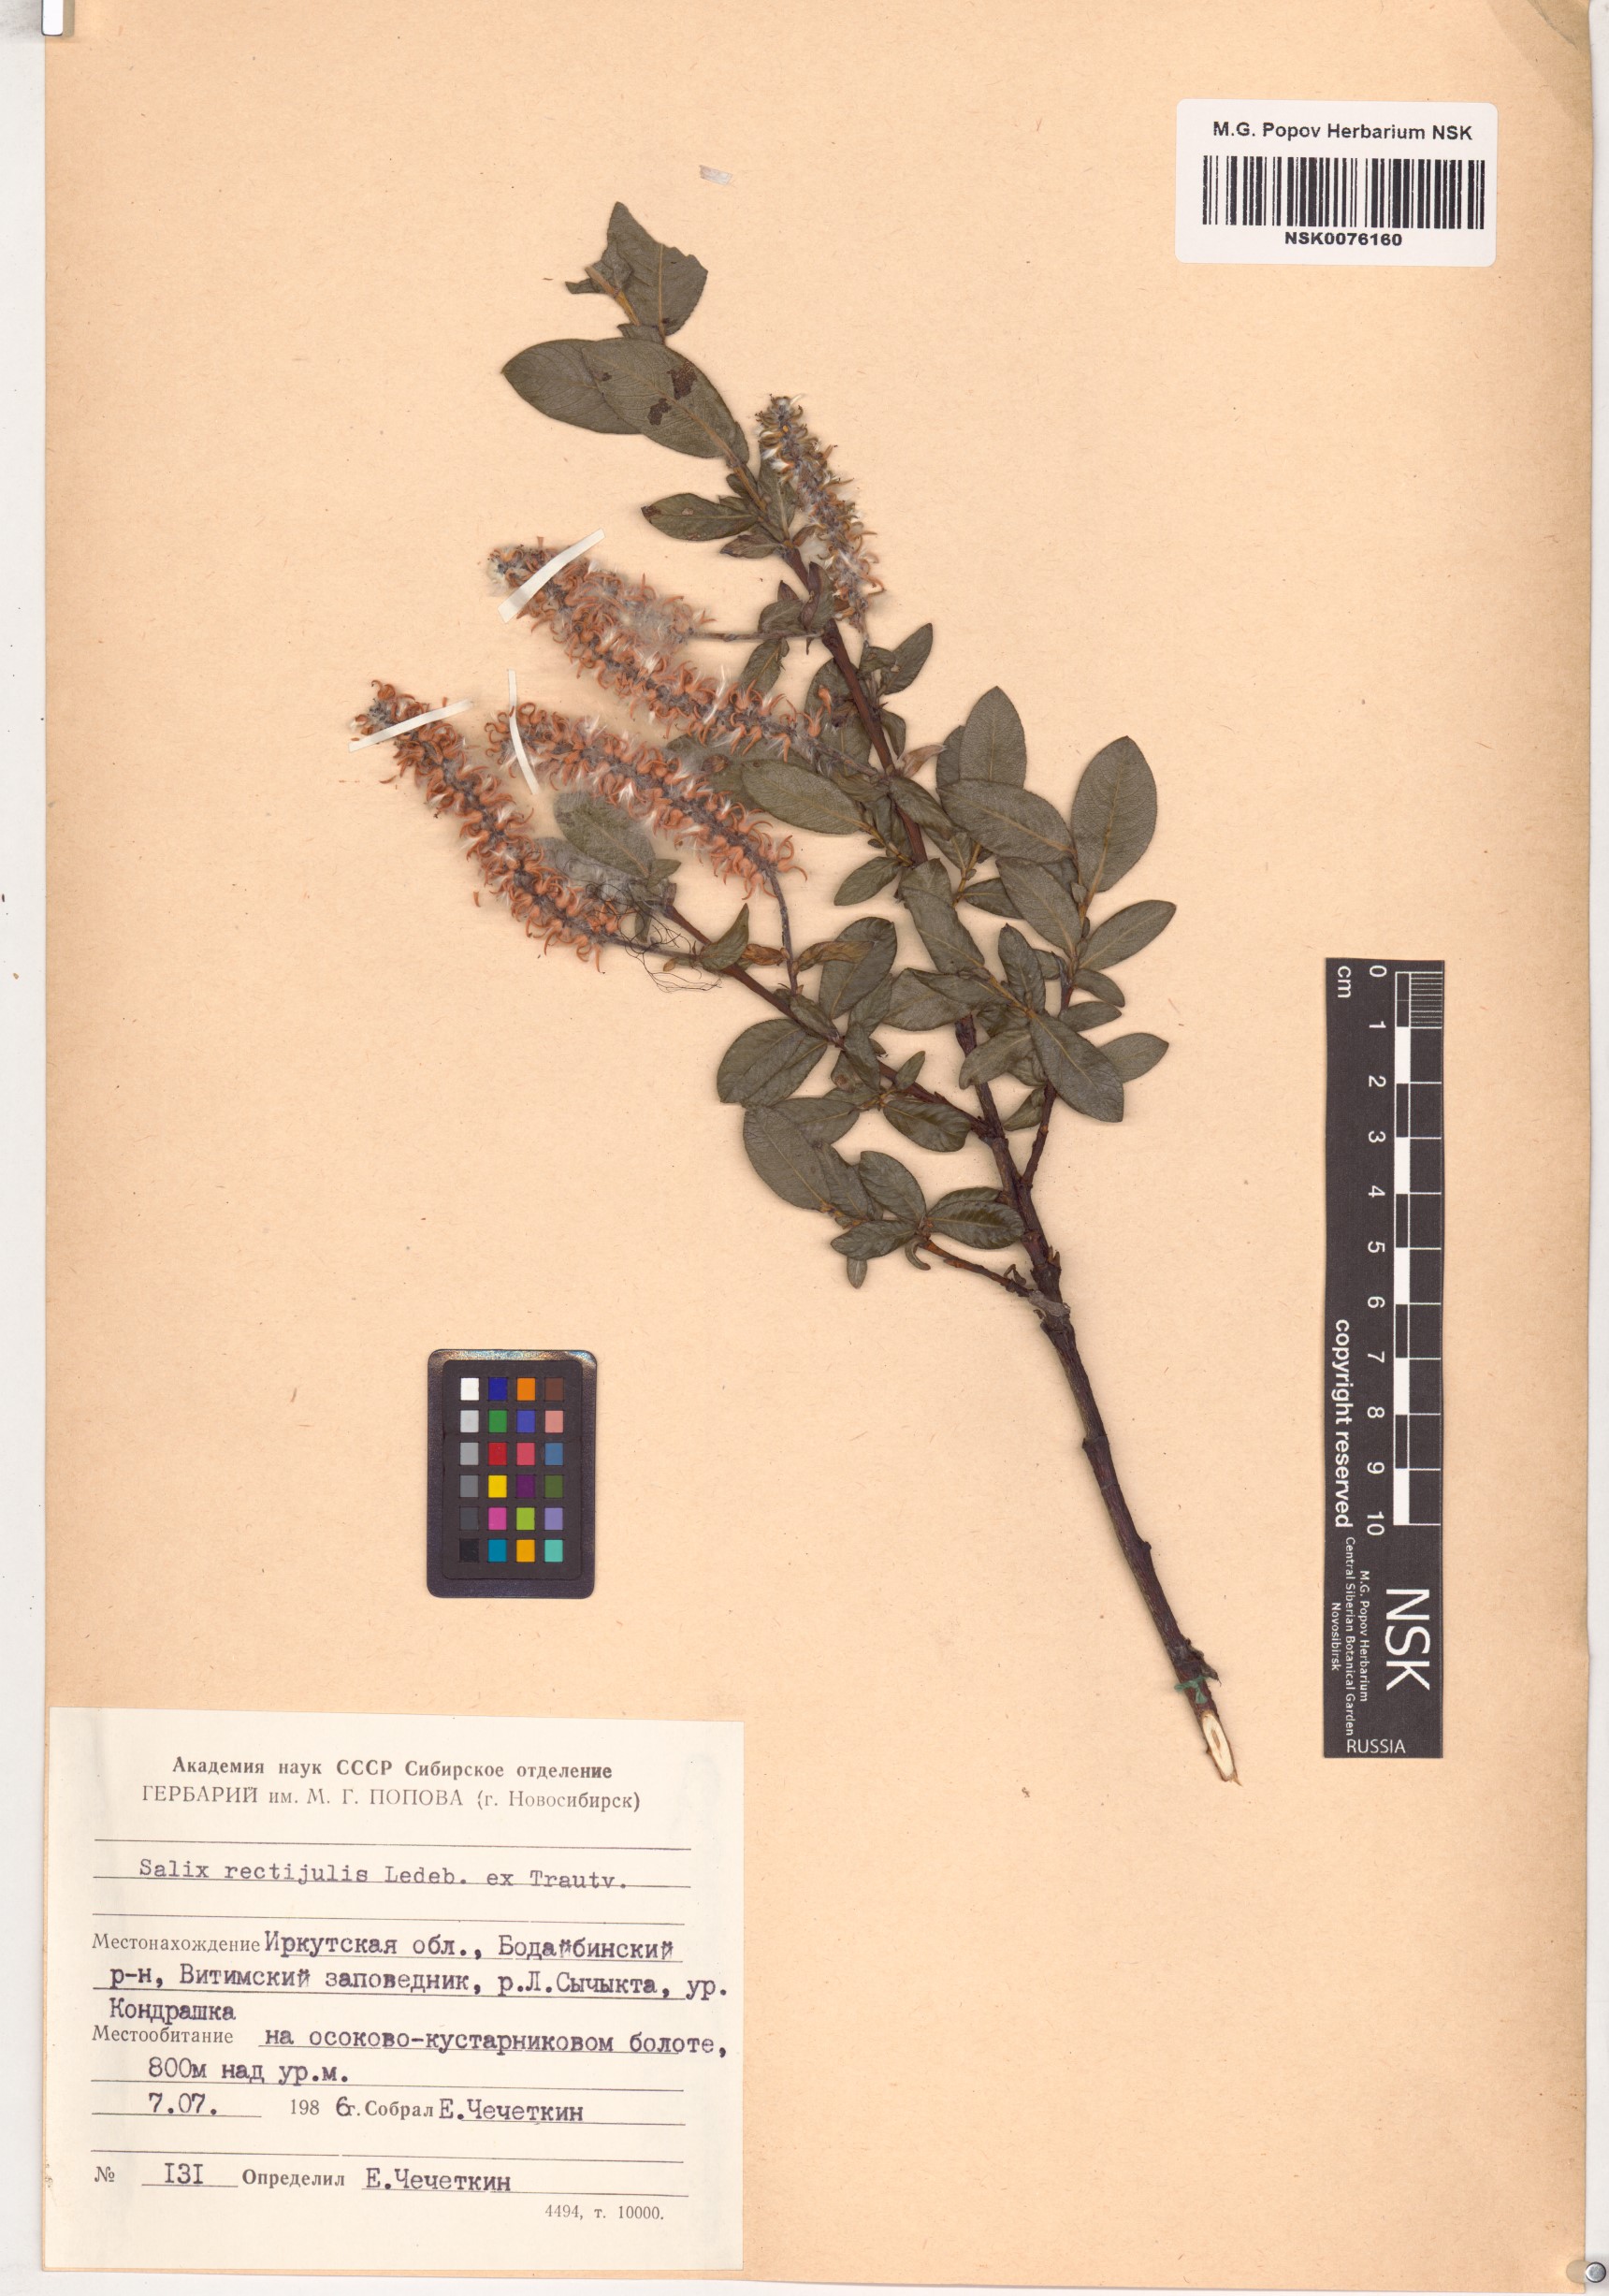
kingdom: Plantae
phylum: Tracheophyta
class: Magnoliopsida
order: Malpighiales
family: Salicaceae
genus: Salix
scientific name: Salix rectijulis
